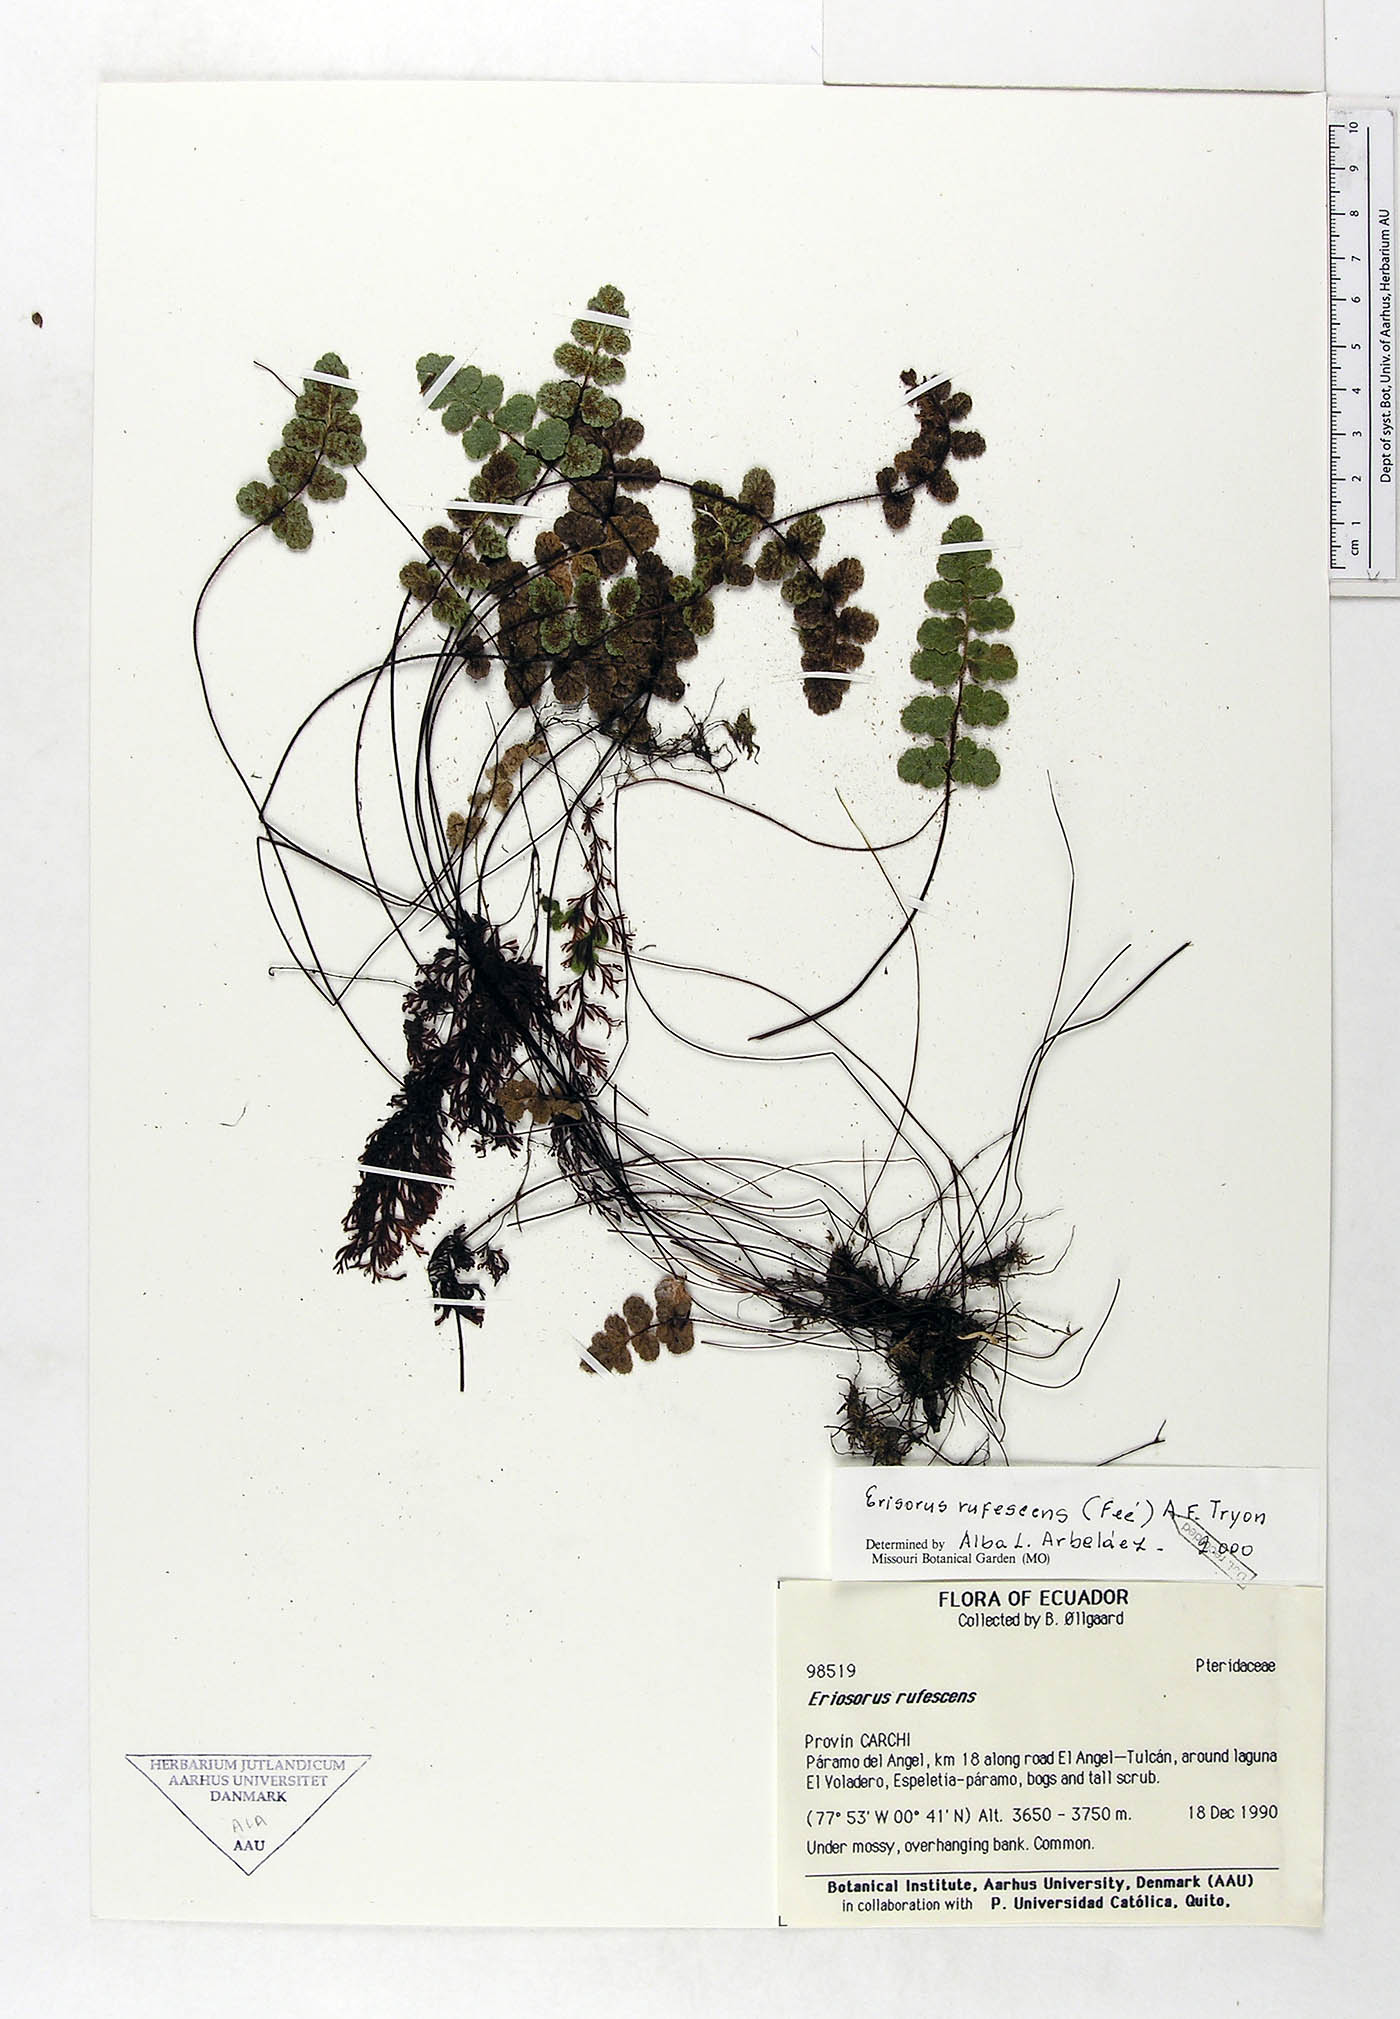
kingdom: Plantae
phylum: Tracheophyta
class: Polypodiopsida
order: Polypodiales
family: Pteridaceae
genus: Jamesonia
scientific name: Jamesonia rufescens
